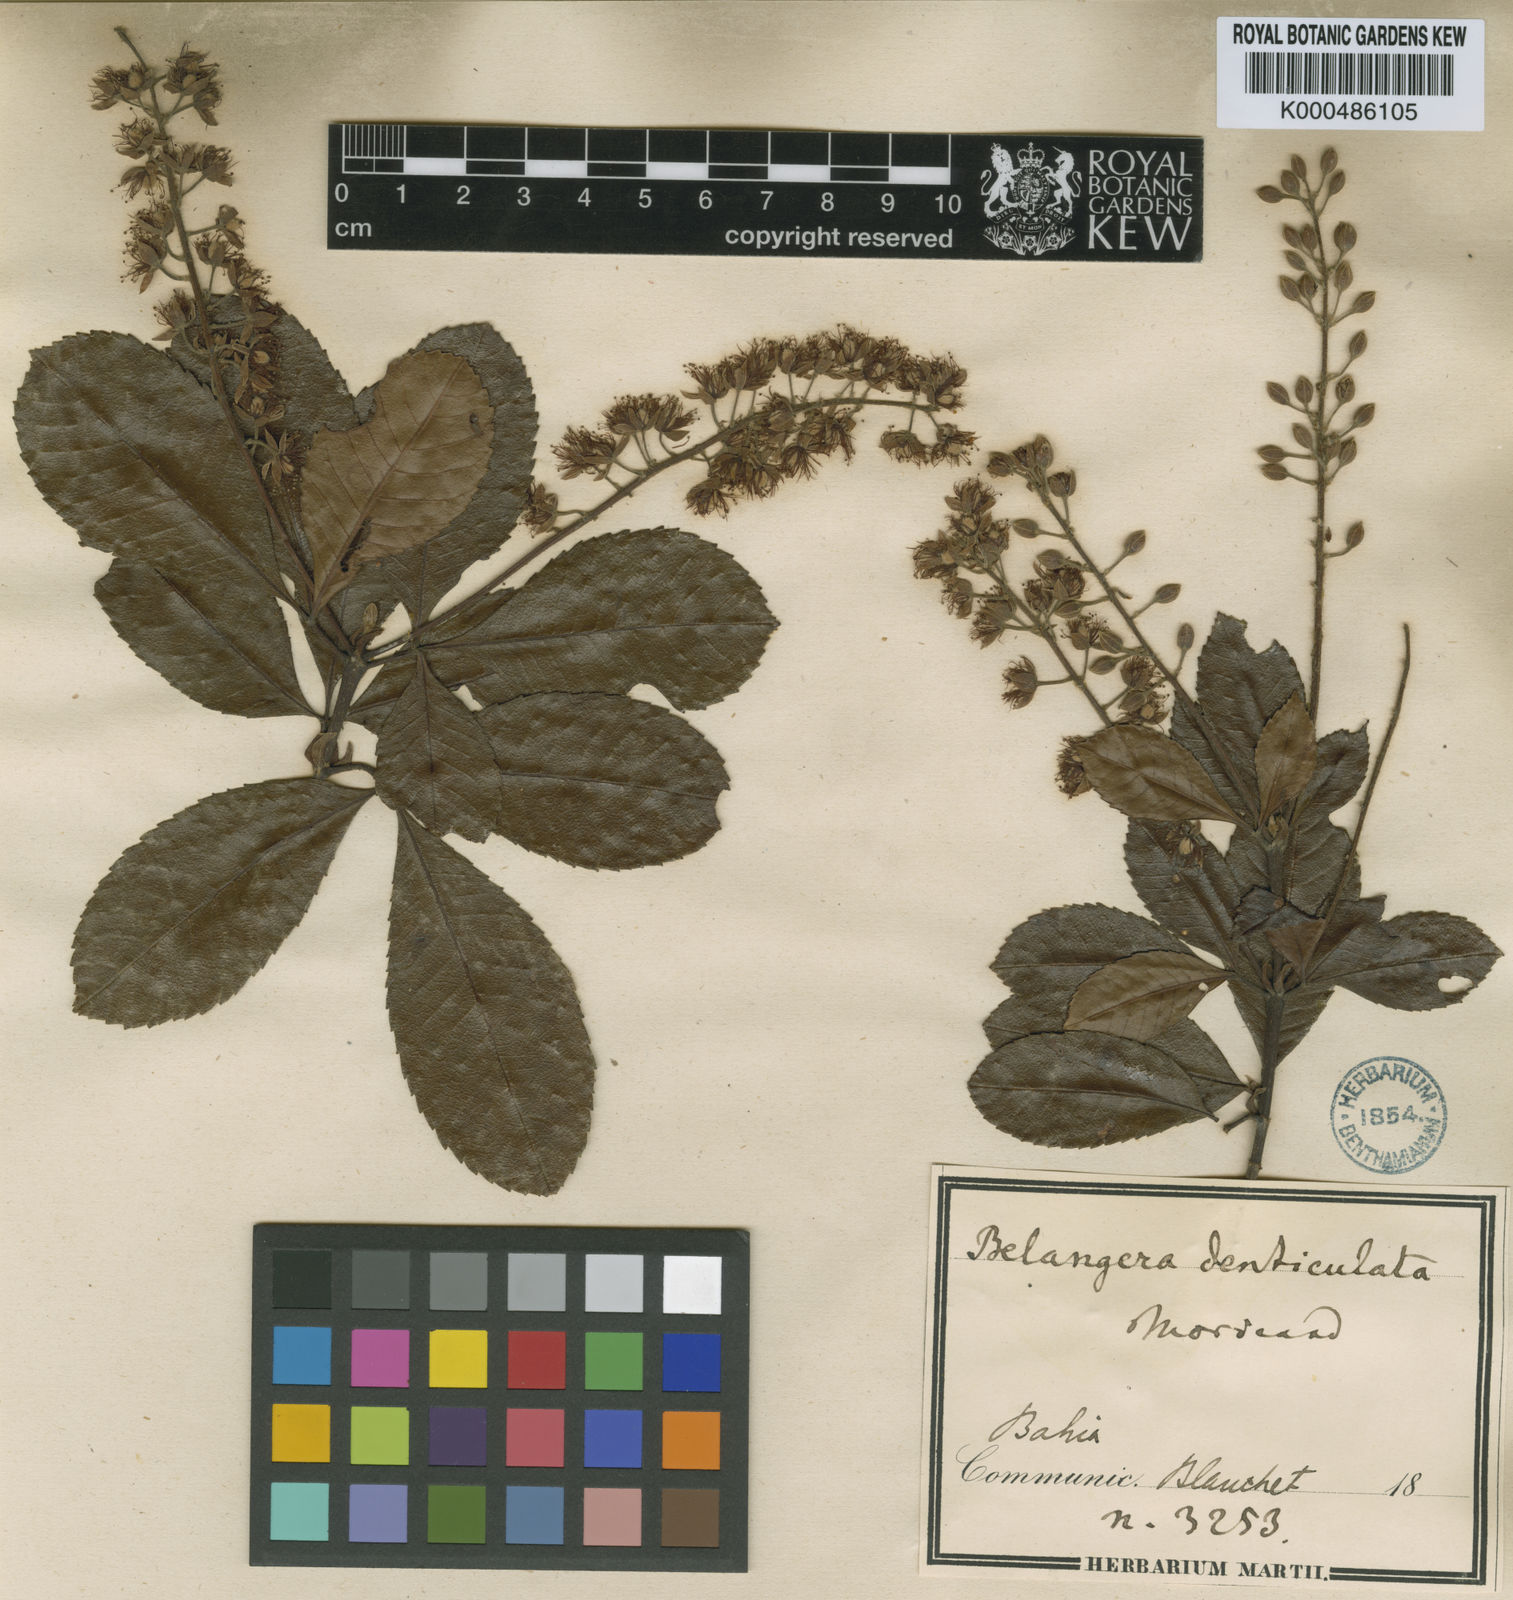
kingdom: Plantae
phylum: Tracheophyta
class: Magnoliopsida
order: Oxalidales
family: Cunoniaceae
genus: Lamanonia
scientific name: Lamanonia
